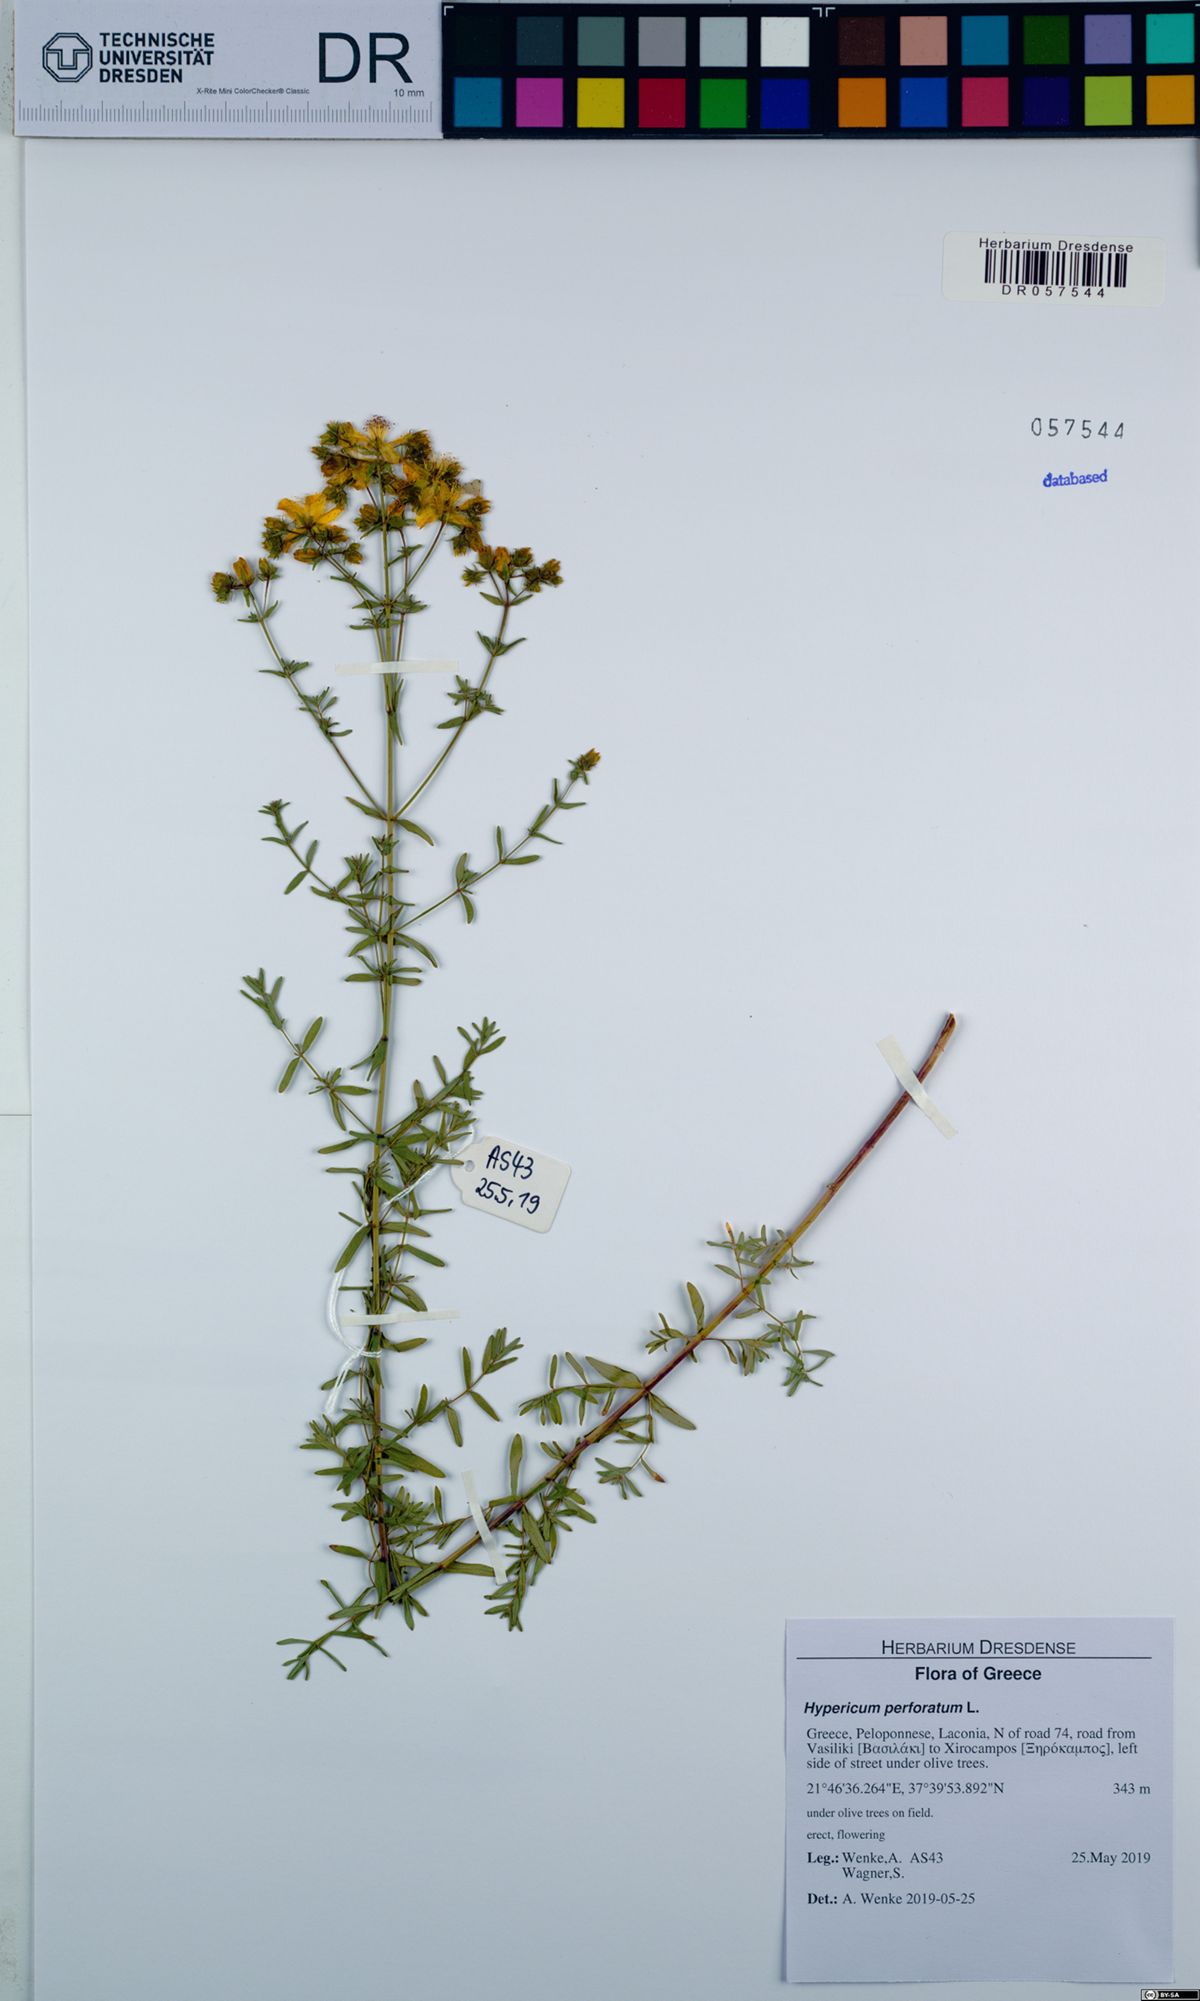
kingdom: Plantae
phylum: Tracheophyta
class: Magnoliopsida
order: Malpighiales
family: Hypericaceae
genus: Hypericum
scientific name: Hypericum perforatum
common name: Common st. johnswort
